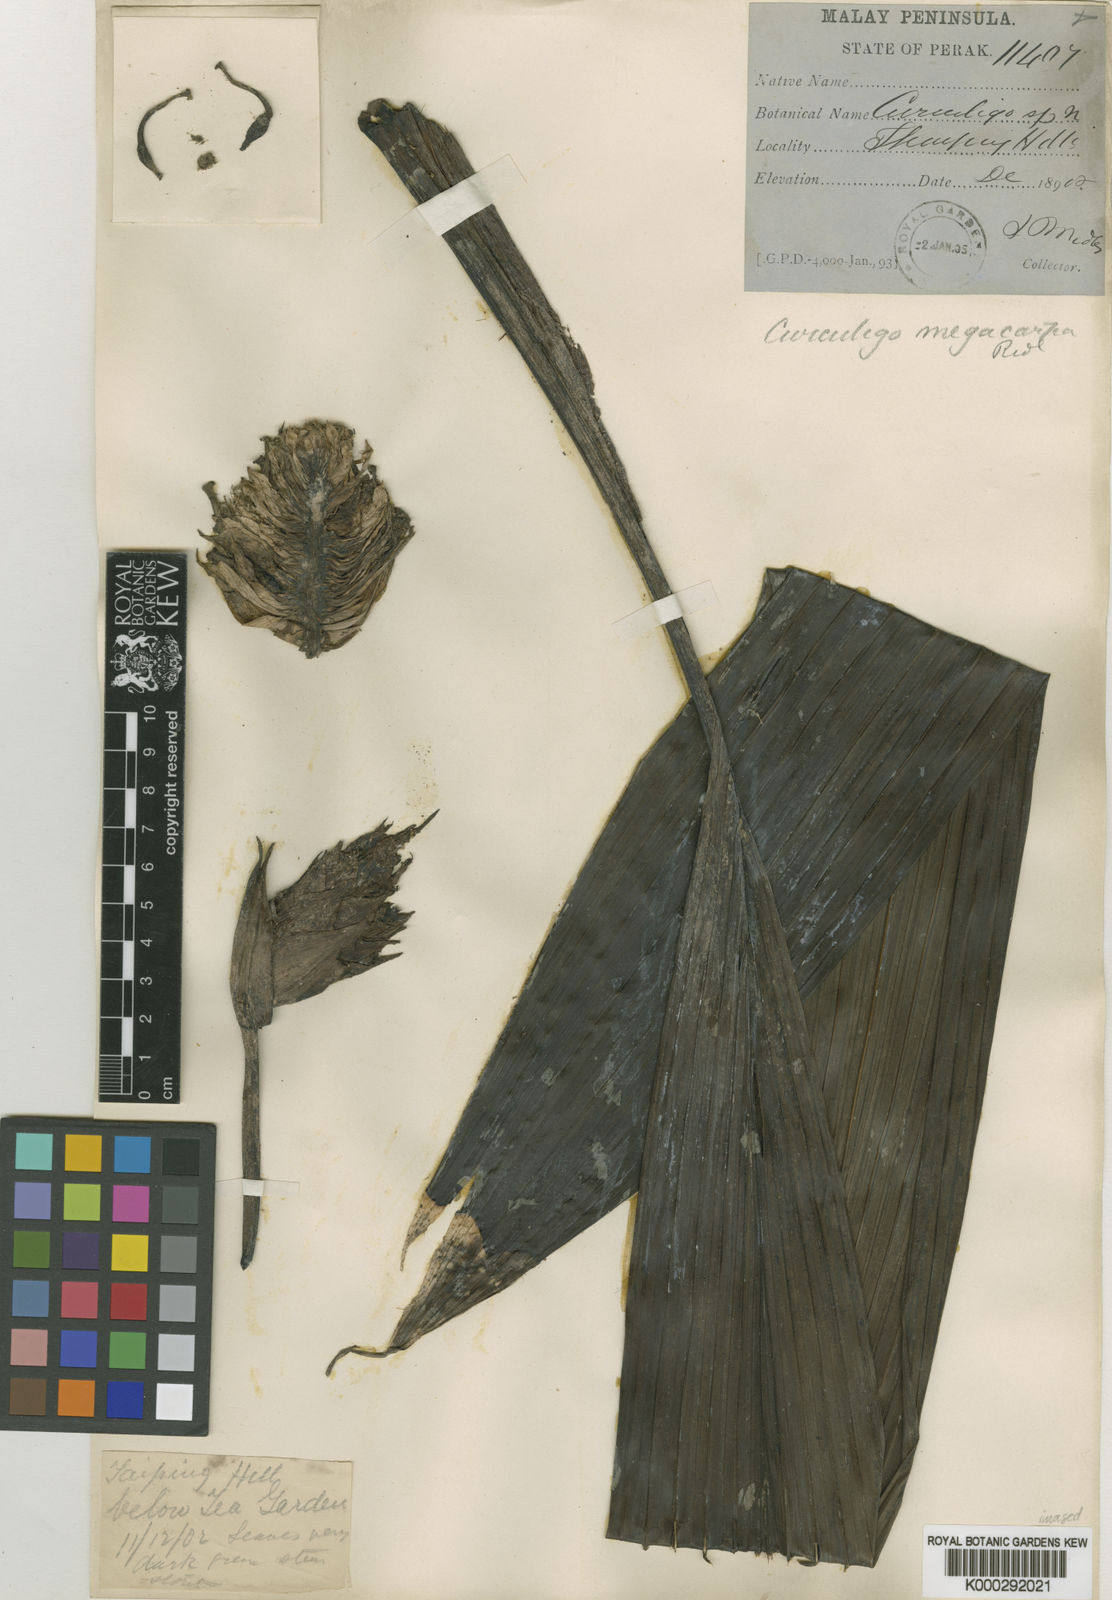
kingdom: Plantae
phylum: Tracheophyta
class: Liliopsida
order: Asparagales
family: Hypoxidaceae
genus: Curculigo
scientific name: Curculigo latifolia
